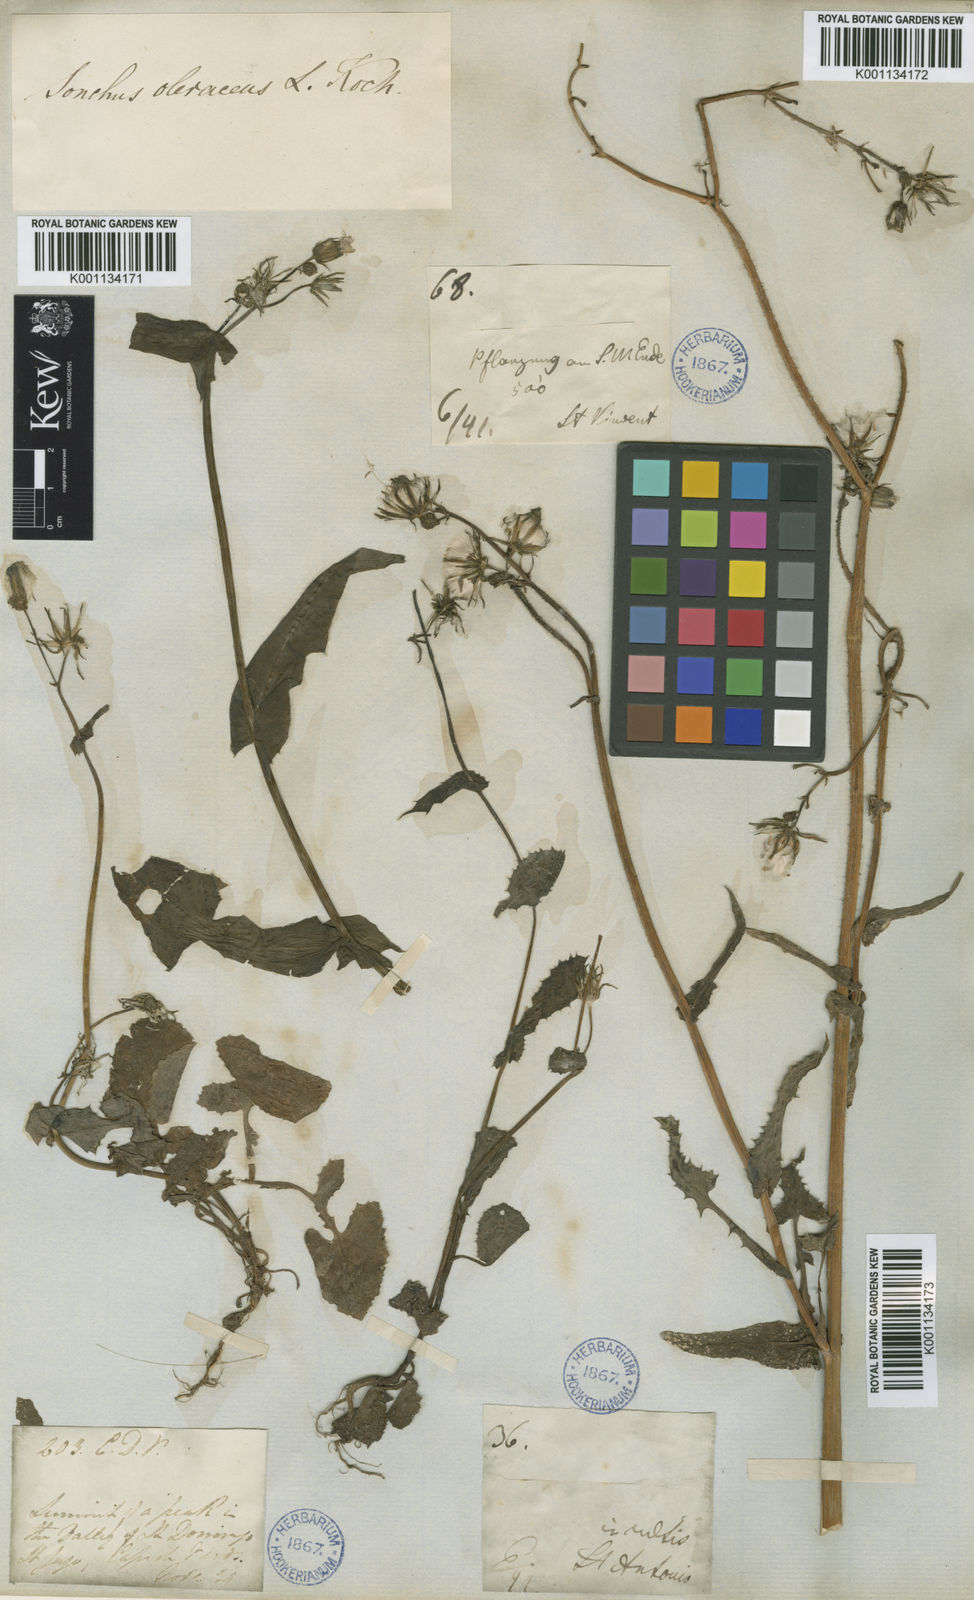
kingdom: Plantae
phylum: Tracheophyta
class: Magnoliopsida
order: Asterales
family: Asteraceae
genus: Sonchus
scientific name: Sonchus oleraceus
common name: Common sowthistle
